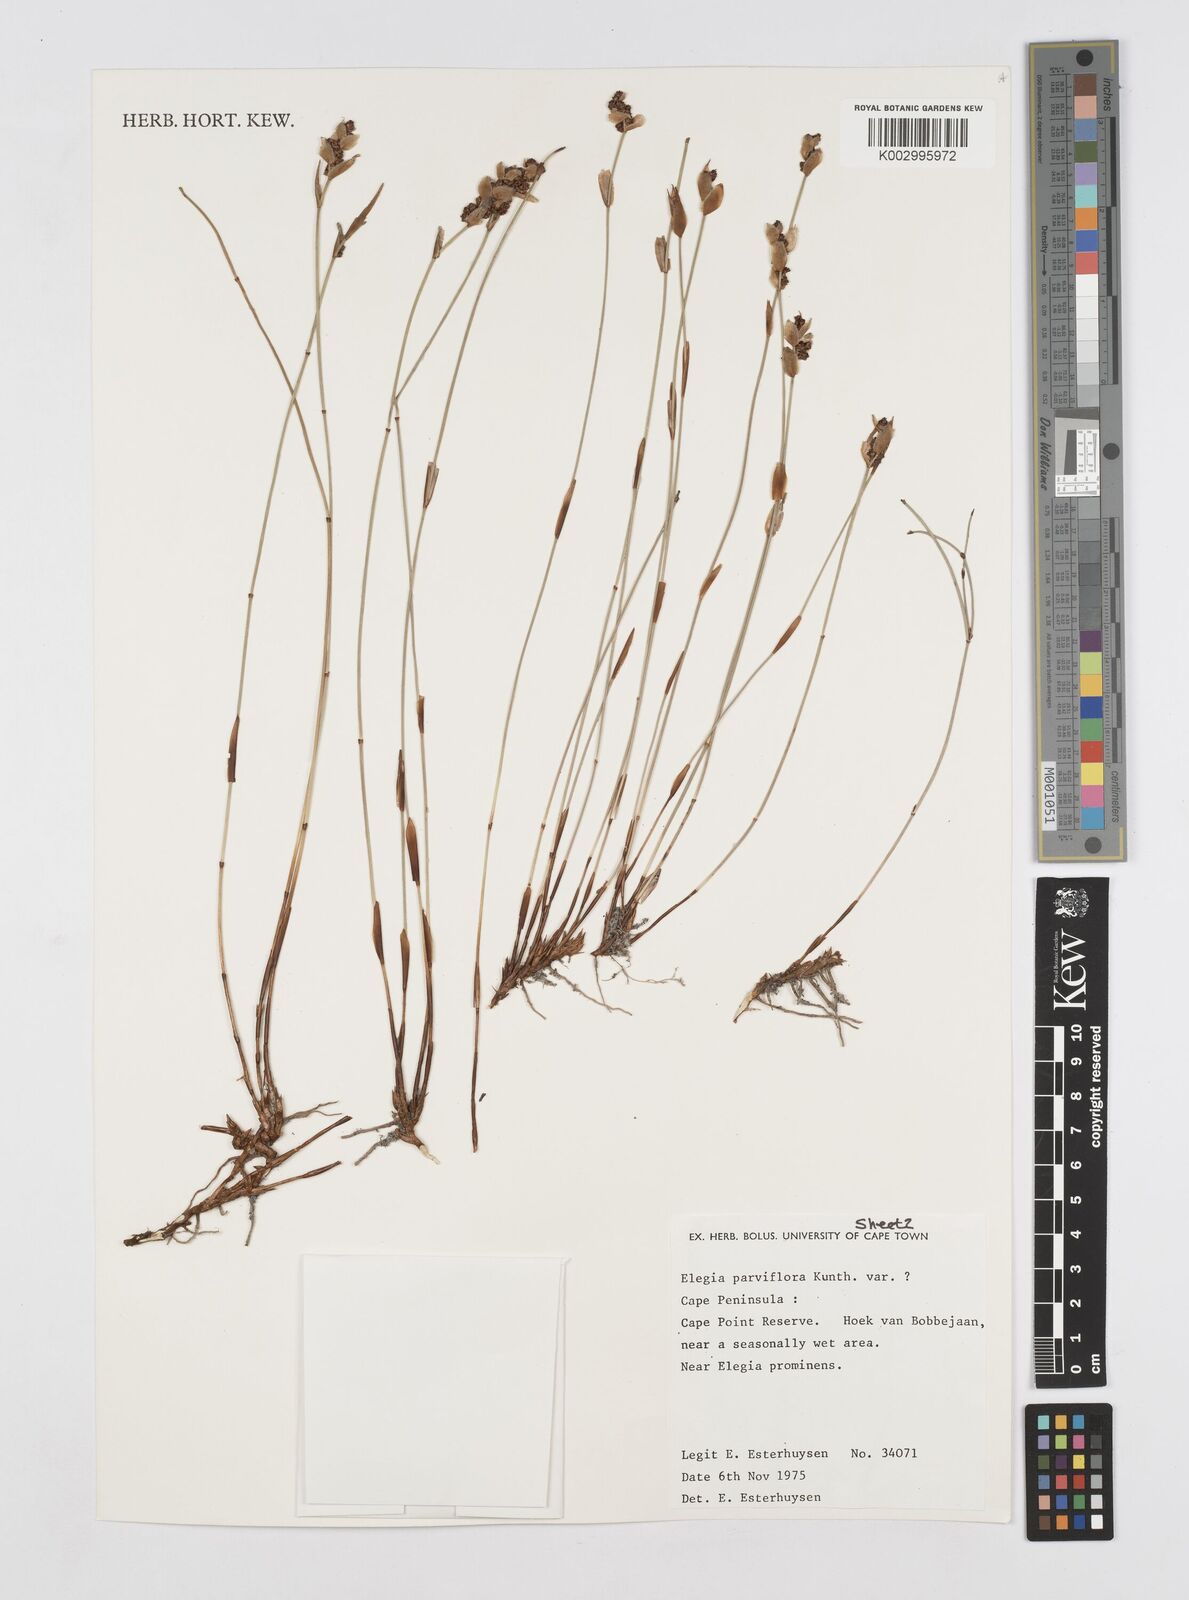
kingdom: Plantae
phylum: Tracheophyta
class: Liliopsida
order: Poales
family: Restionaceae
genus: Cannomois
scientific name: Cannomois parviflora
